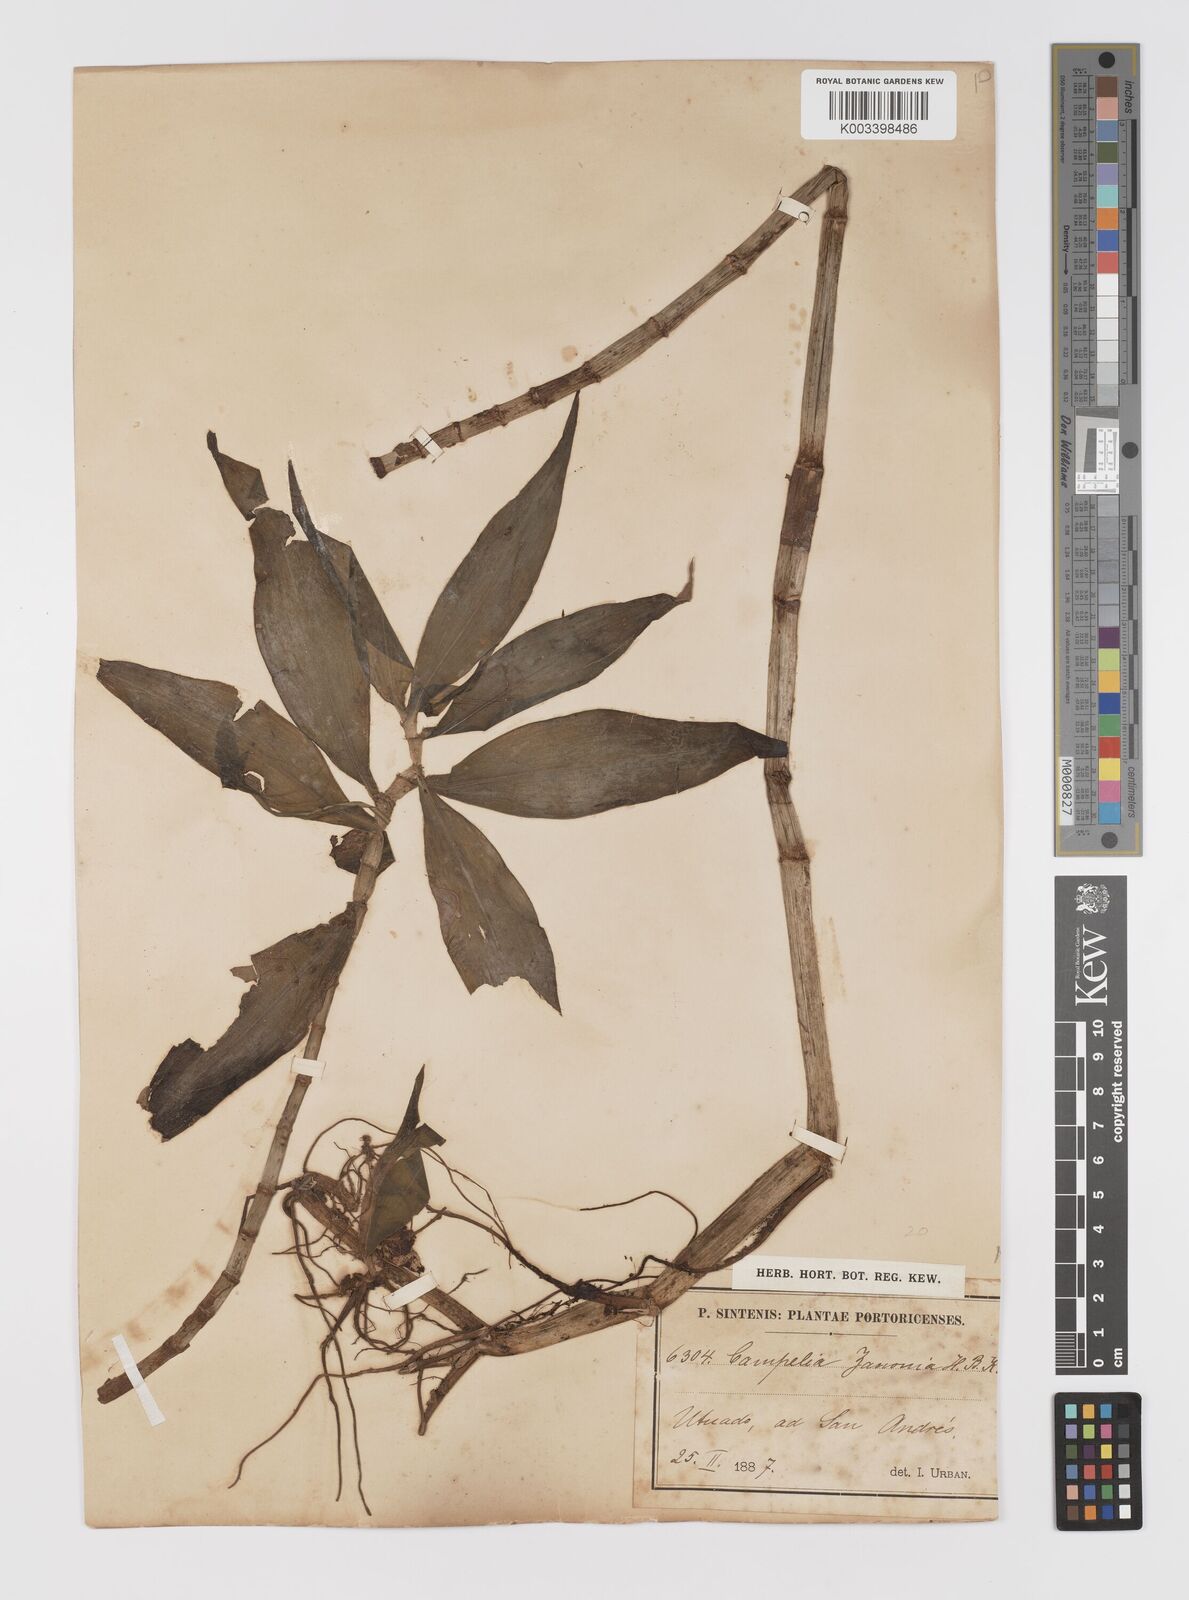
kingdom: Plantae
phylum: Tracheophyta
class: Liliopsida
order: Commelinales
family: Commelinaceae
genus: Tradescantia
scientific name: Tradescantia zanonia
